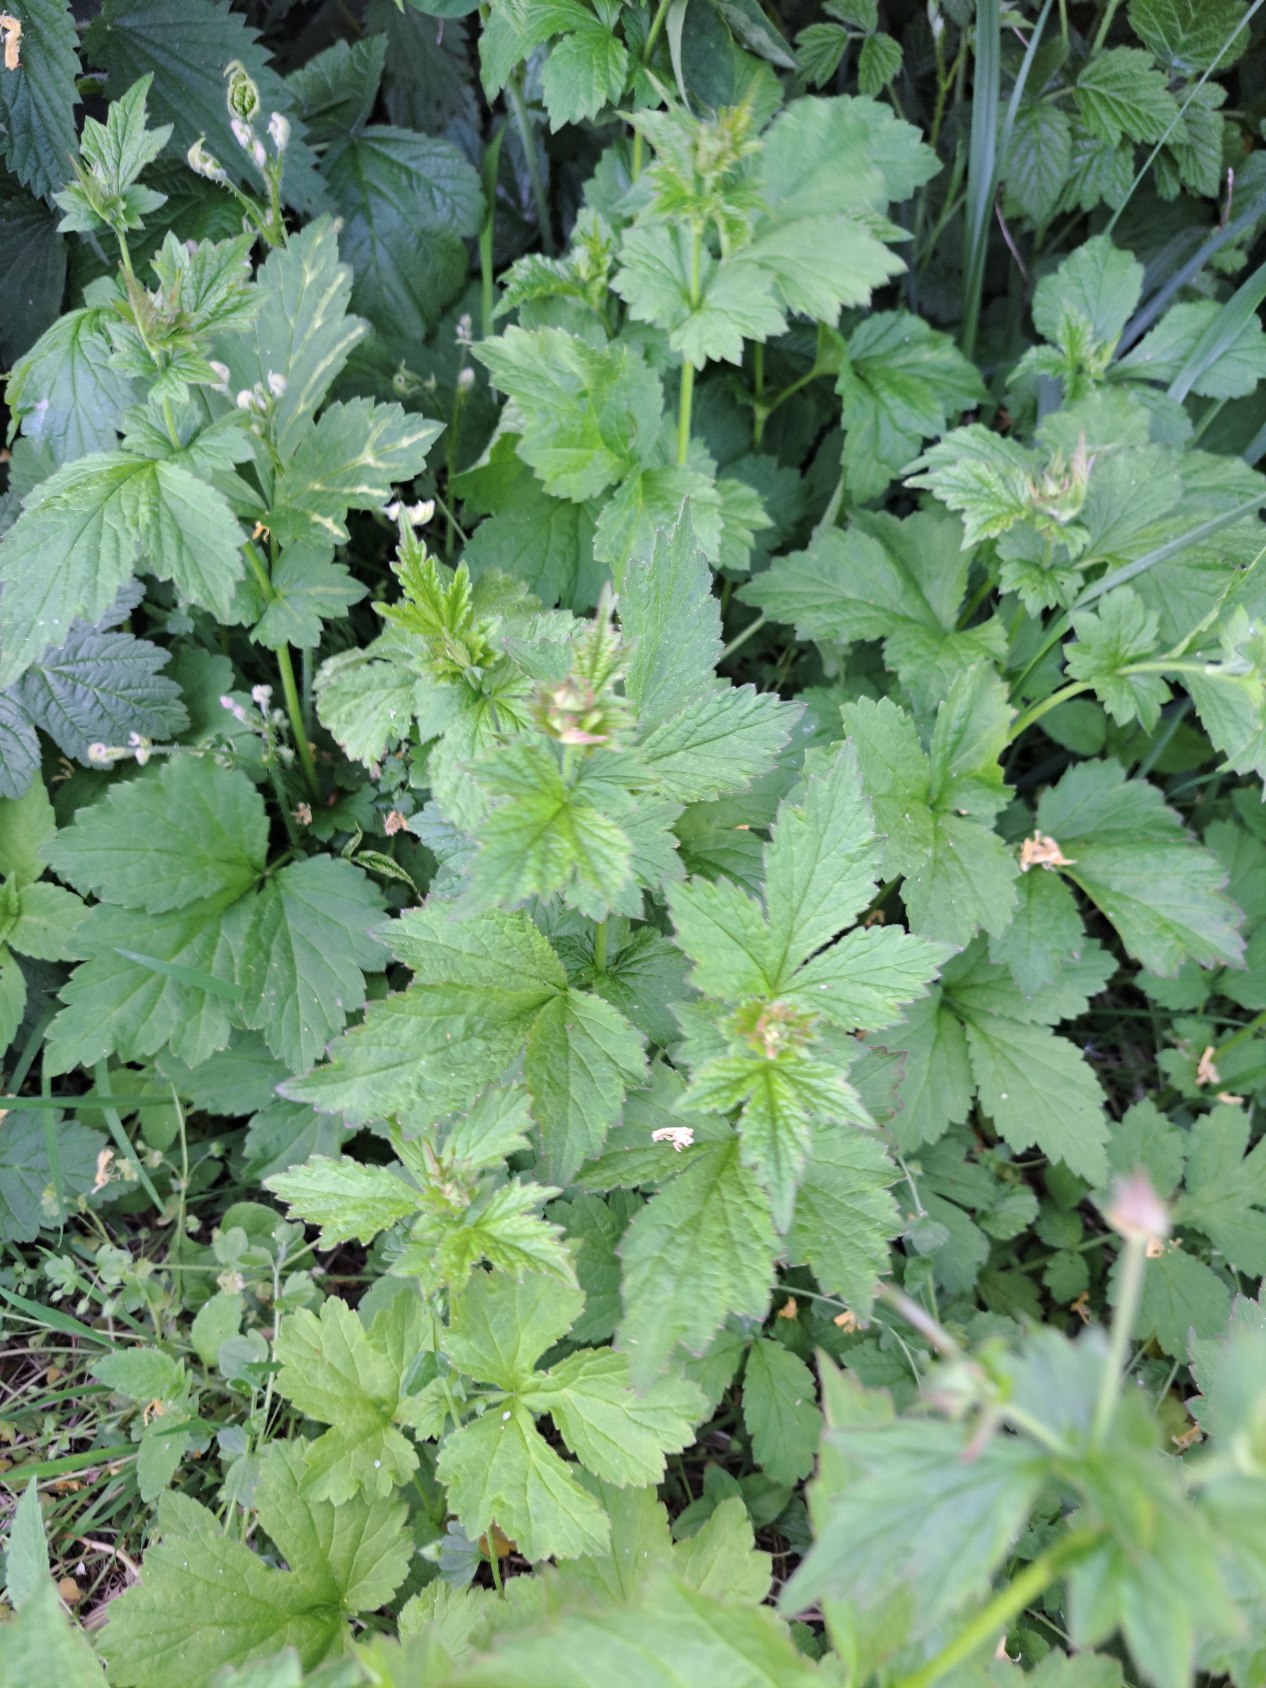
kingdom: Plantae
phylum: Tracheophyta
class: Magnoliopsida
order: Rosales
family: Rosaceae
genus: Geum
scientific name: Geum urbanum
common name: Feber-nellikerod
